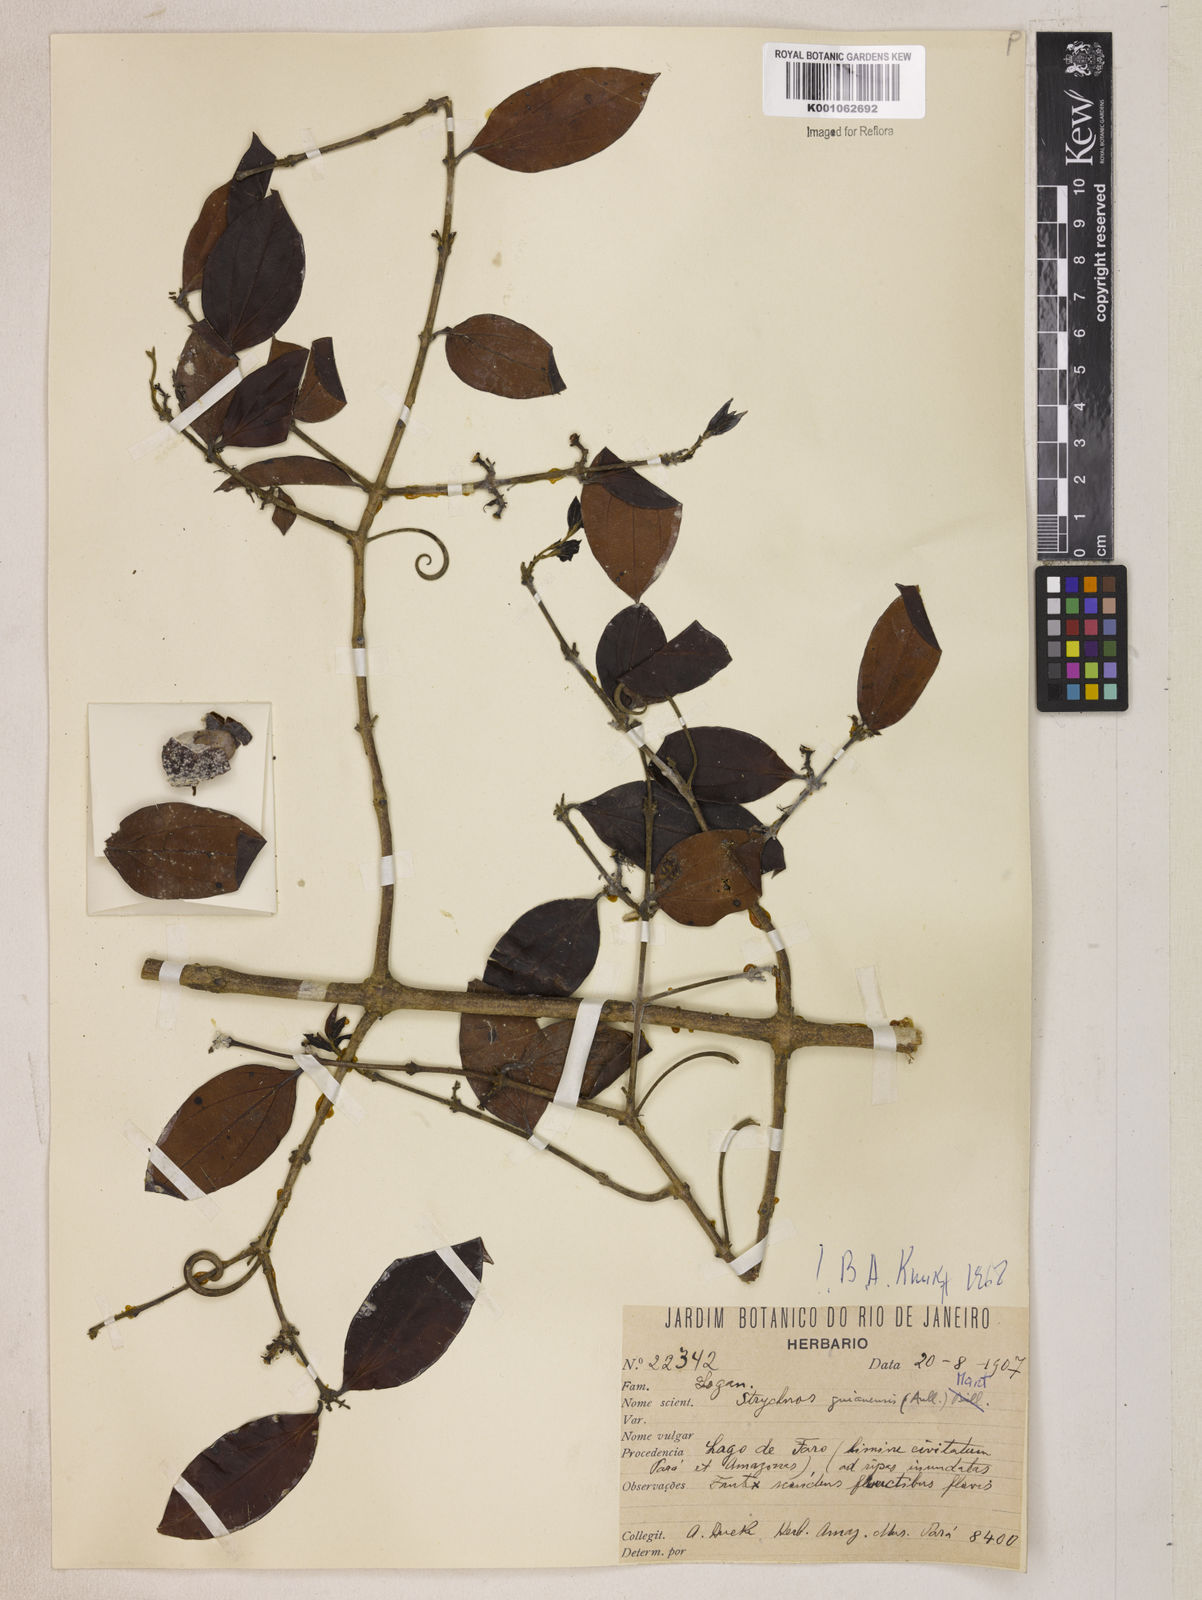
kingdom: Plantae
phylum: Tracheophyta
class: Magnoliopsida
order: Gentianales
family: Loganiaceae
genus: Strychnos
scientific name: Strychnos guianensis
